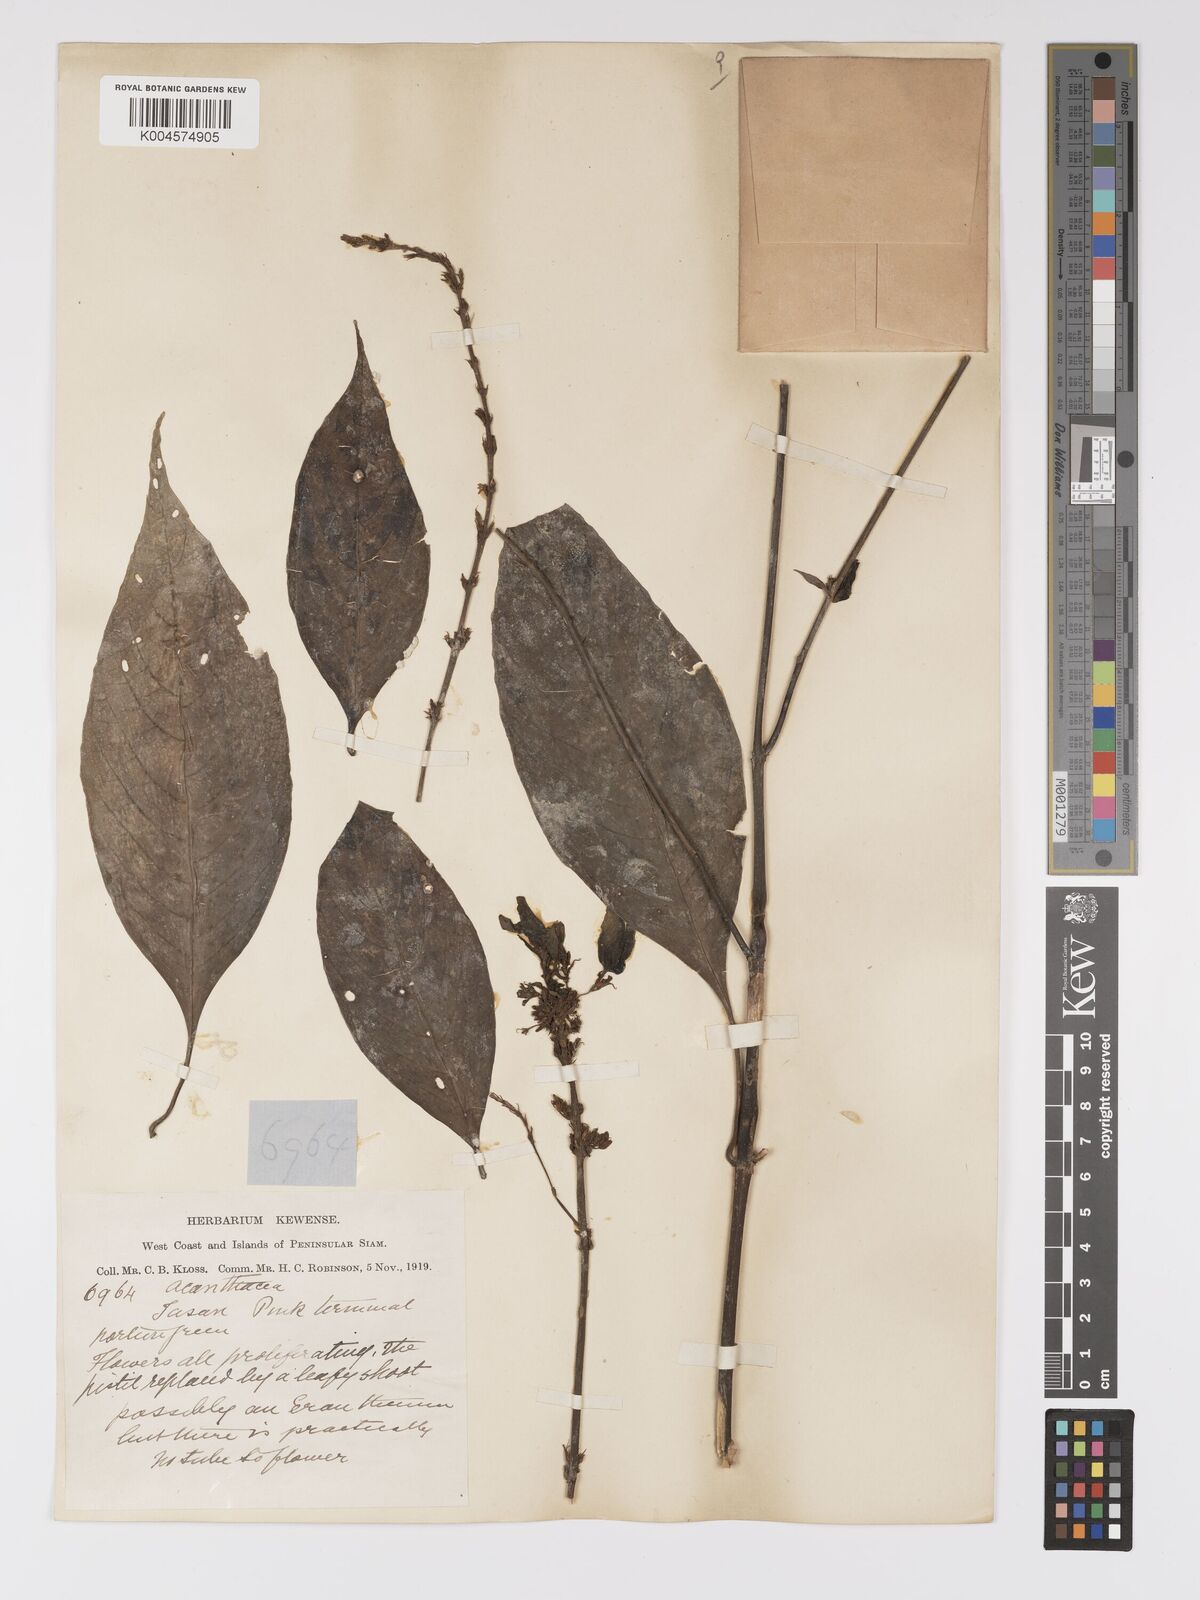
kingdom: Plantae
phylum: Tracheophyta
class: Magnoliopsida
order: Lamiales
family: Acanthaceae
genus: Pseuderanthemum
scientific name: Pseuderanthemum
